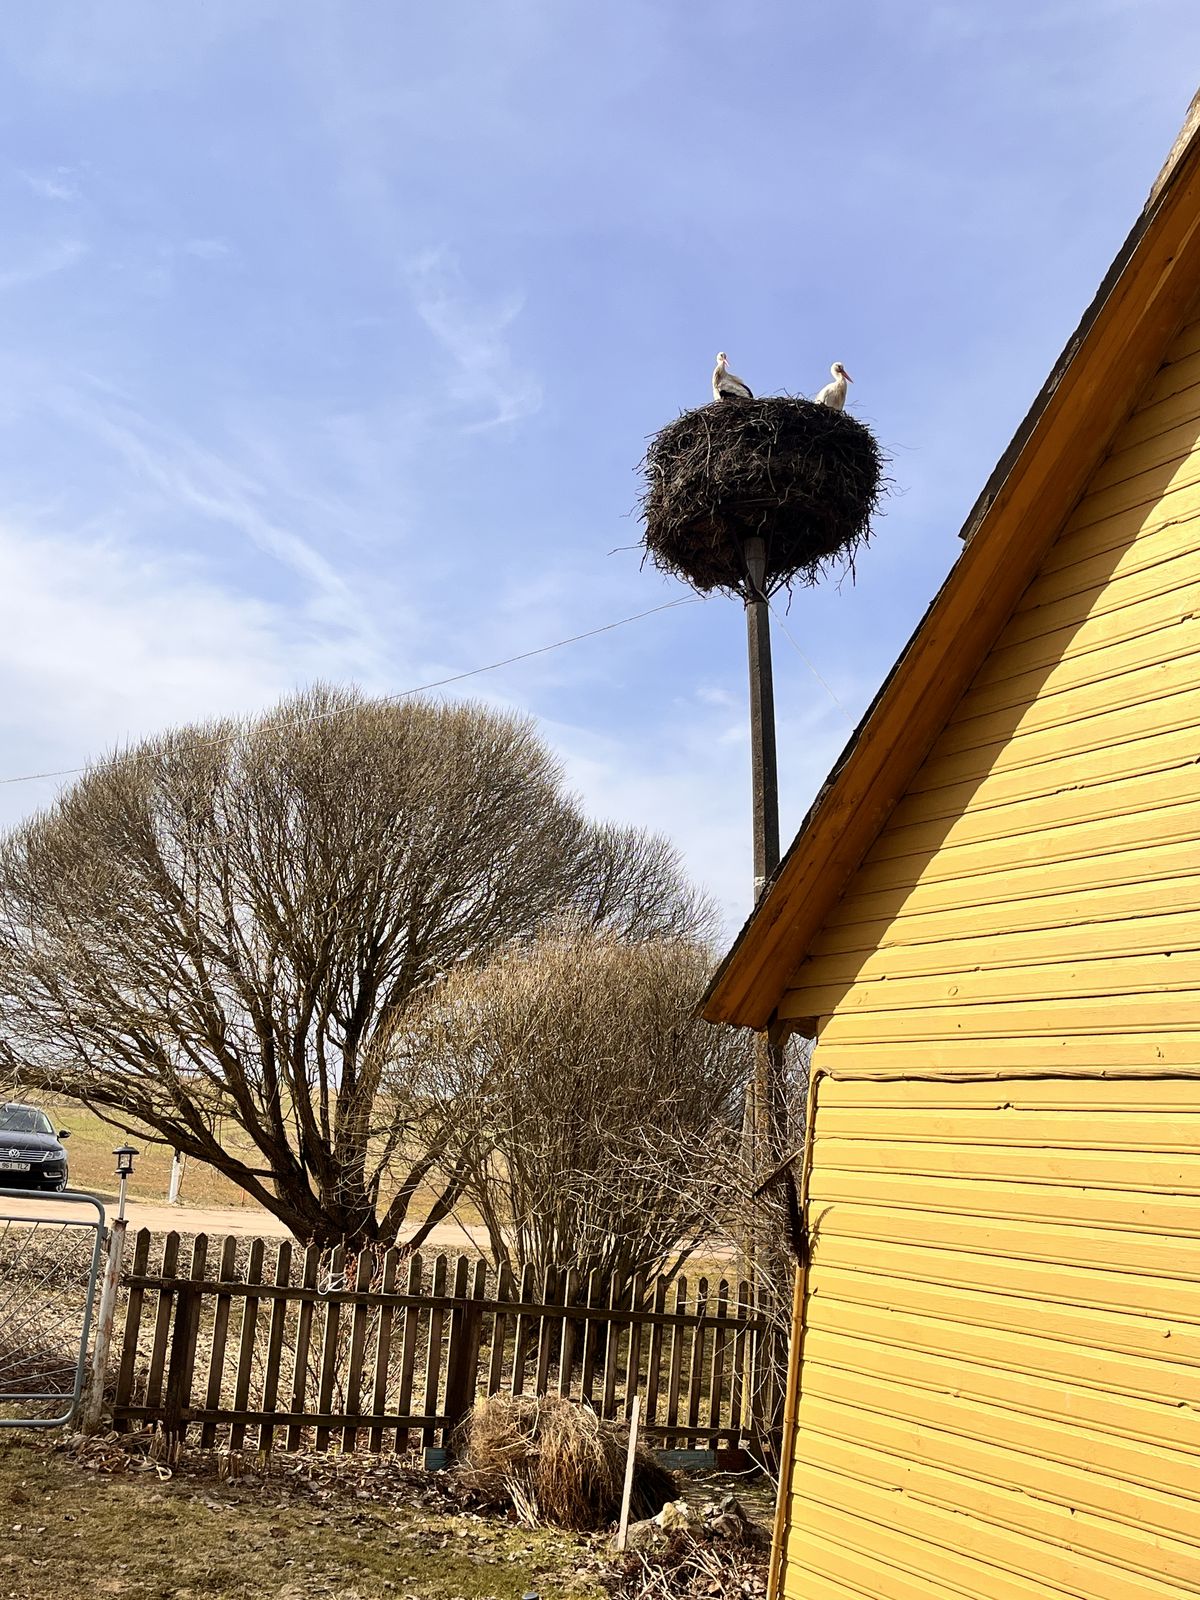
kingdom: Animalia
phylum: Chordata
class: Aves
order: Ciconiiformes
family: Ciconiidae
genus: Ciconia
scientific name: Ciconia ciconia
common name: White stork
